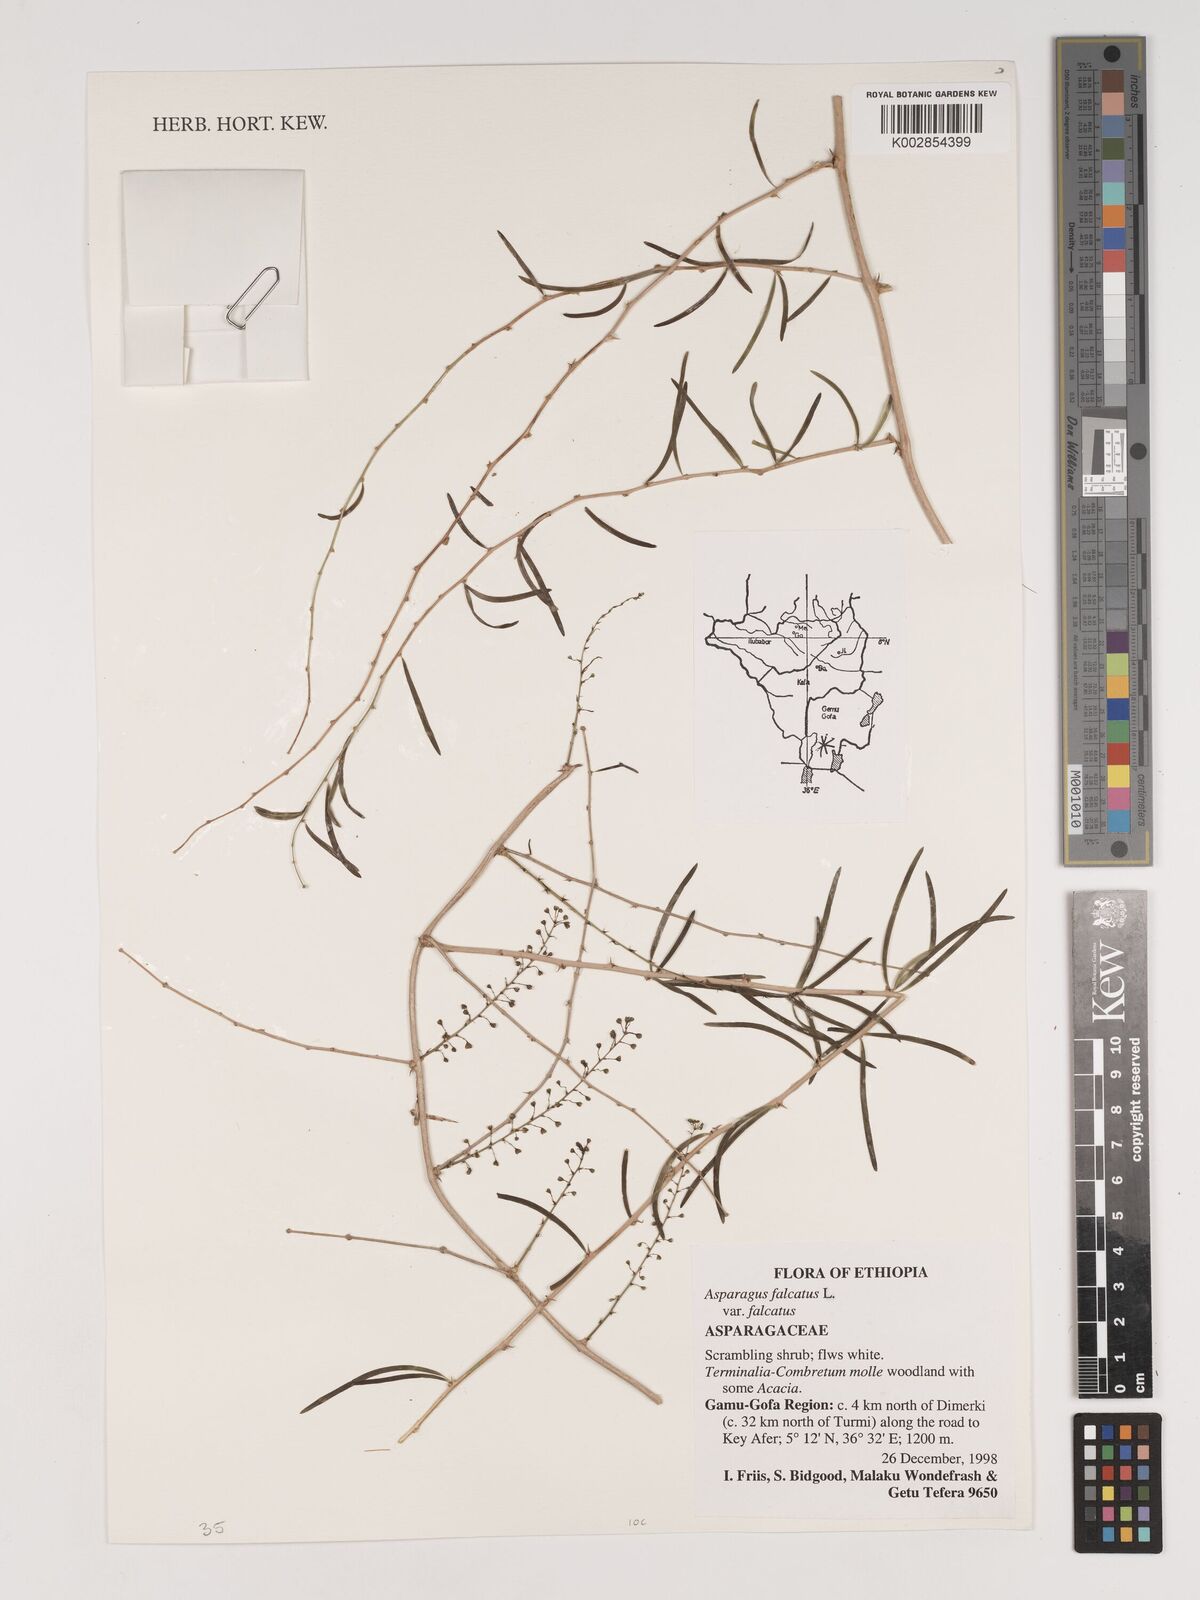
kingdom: Plantae
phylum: Tracheophyta
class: Liliopsida
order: Asparagales
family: Asparagaceae
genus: Asparagus
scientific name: Asparagus falcatus
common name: Asparagus
